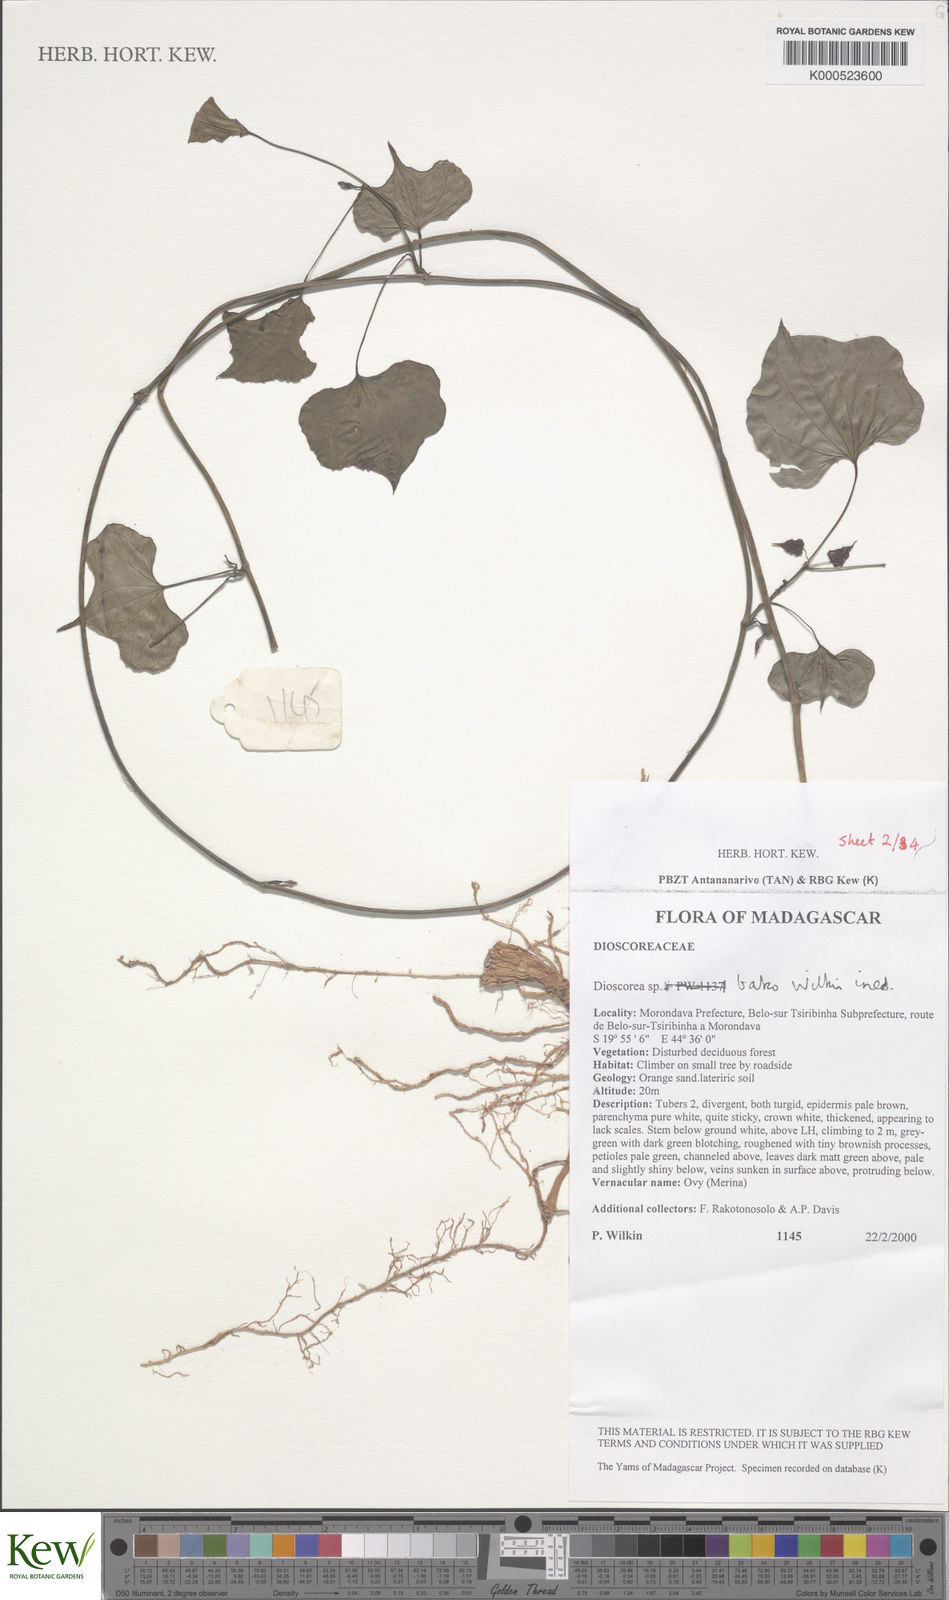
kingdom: Plantae
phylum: Tracheophyta
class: Liliopsida
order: Dioscoreales
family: Dioscoreaceae
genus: Dioscorea
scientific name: Dioscorea bako
